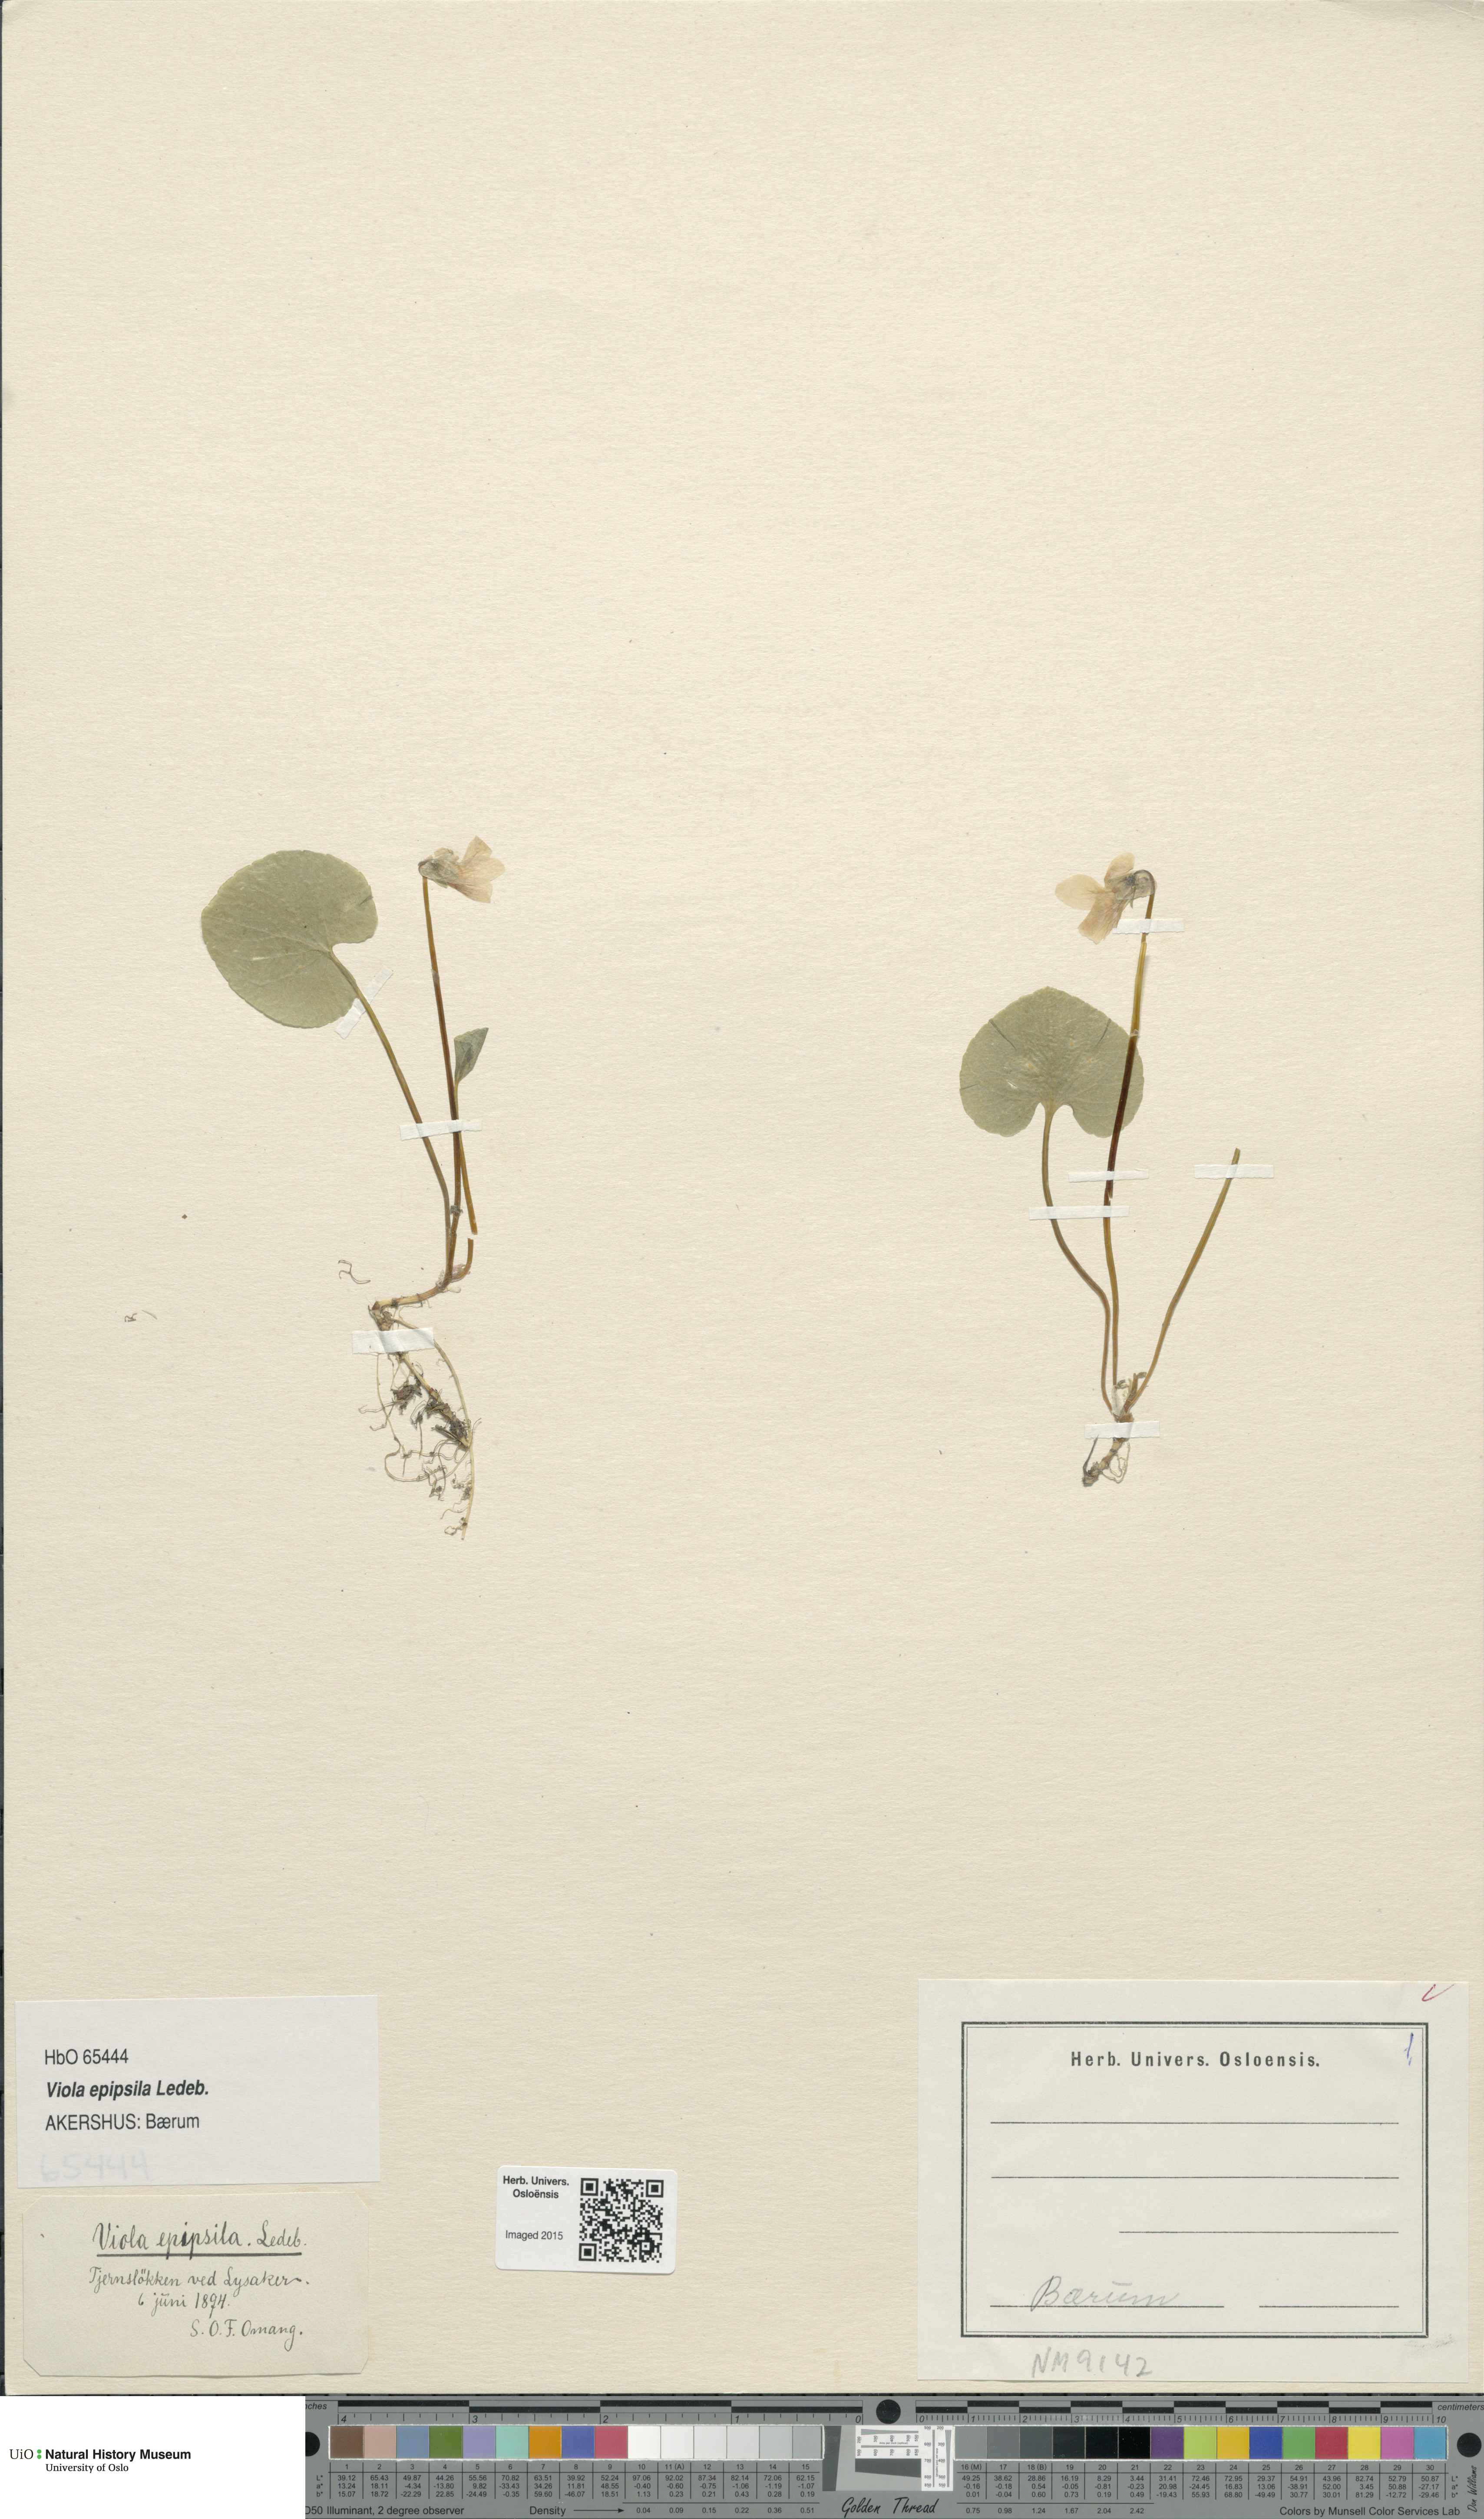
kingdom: Plantae
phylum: Tracheophyta
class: Magnoliopsida
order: Malpighiales
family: Violaceae
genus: Viola
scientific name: Viola epipsila
